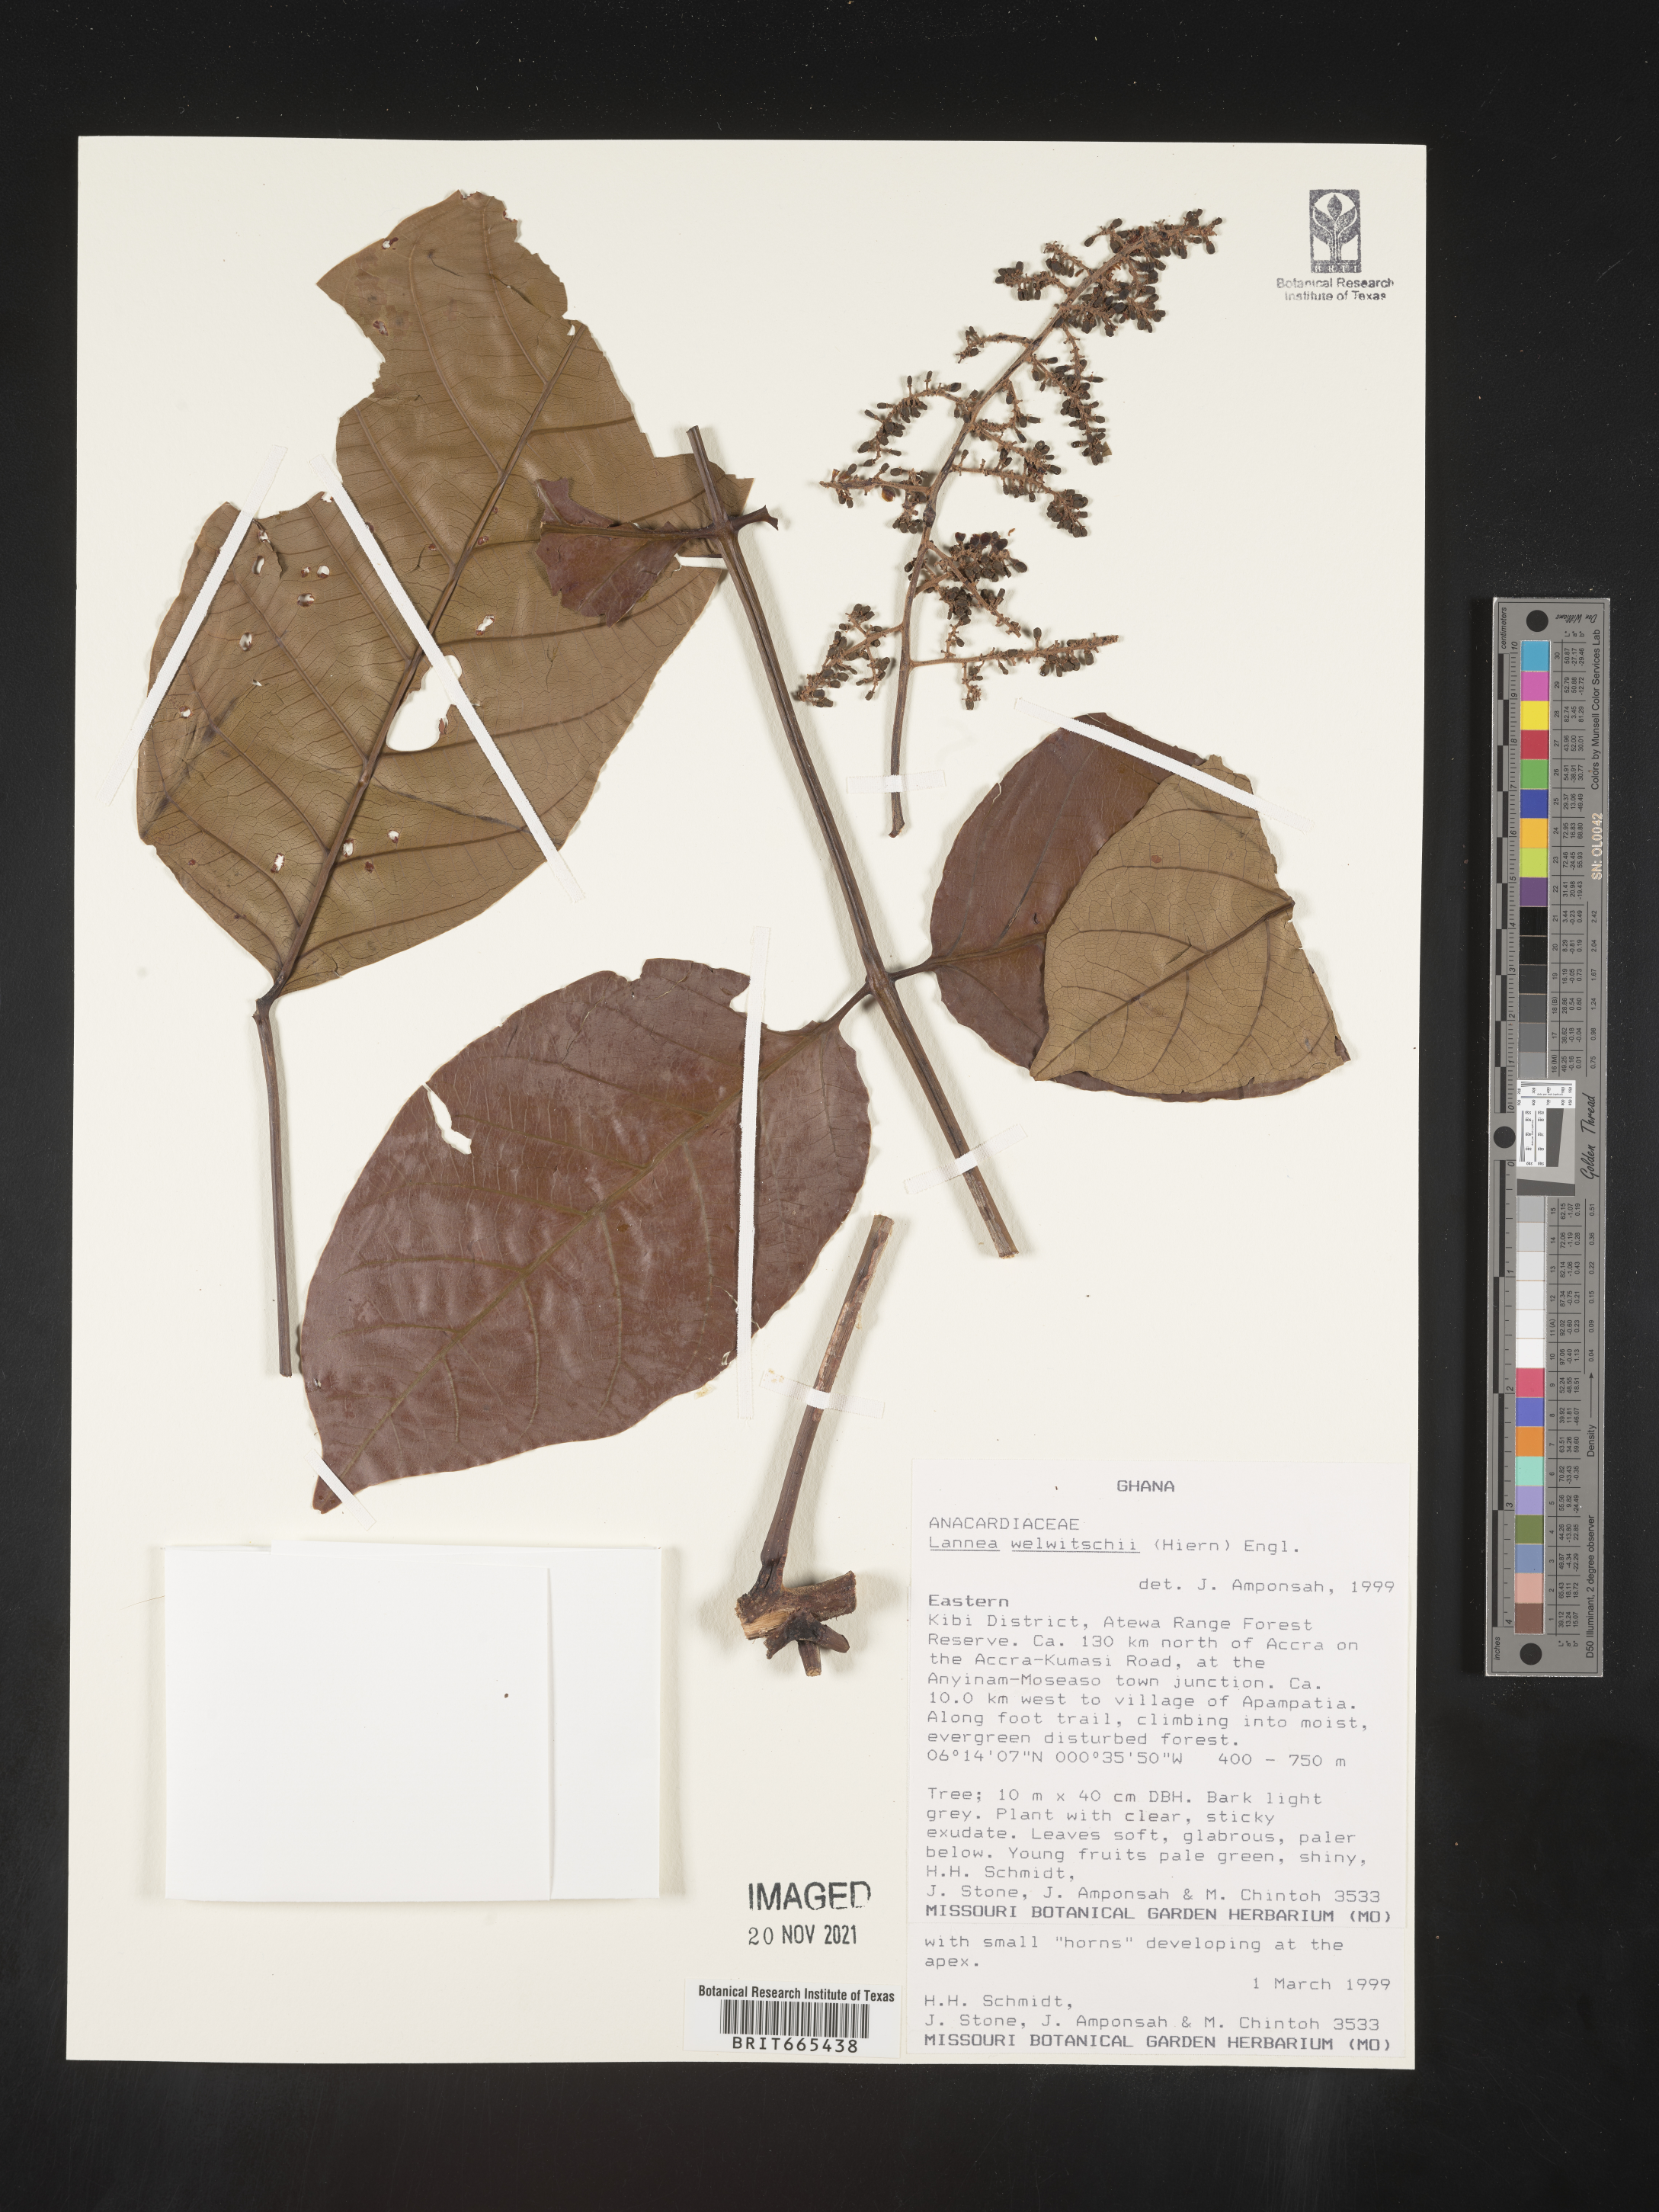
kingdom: Plantae
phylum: Tracheophyta
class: Magnoliopsida
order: Sapindales
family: Anacardiaceae
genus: Lannea
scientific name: Lannea
